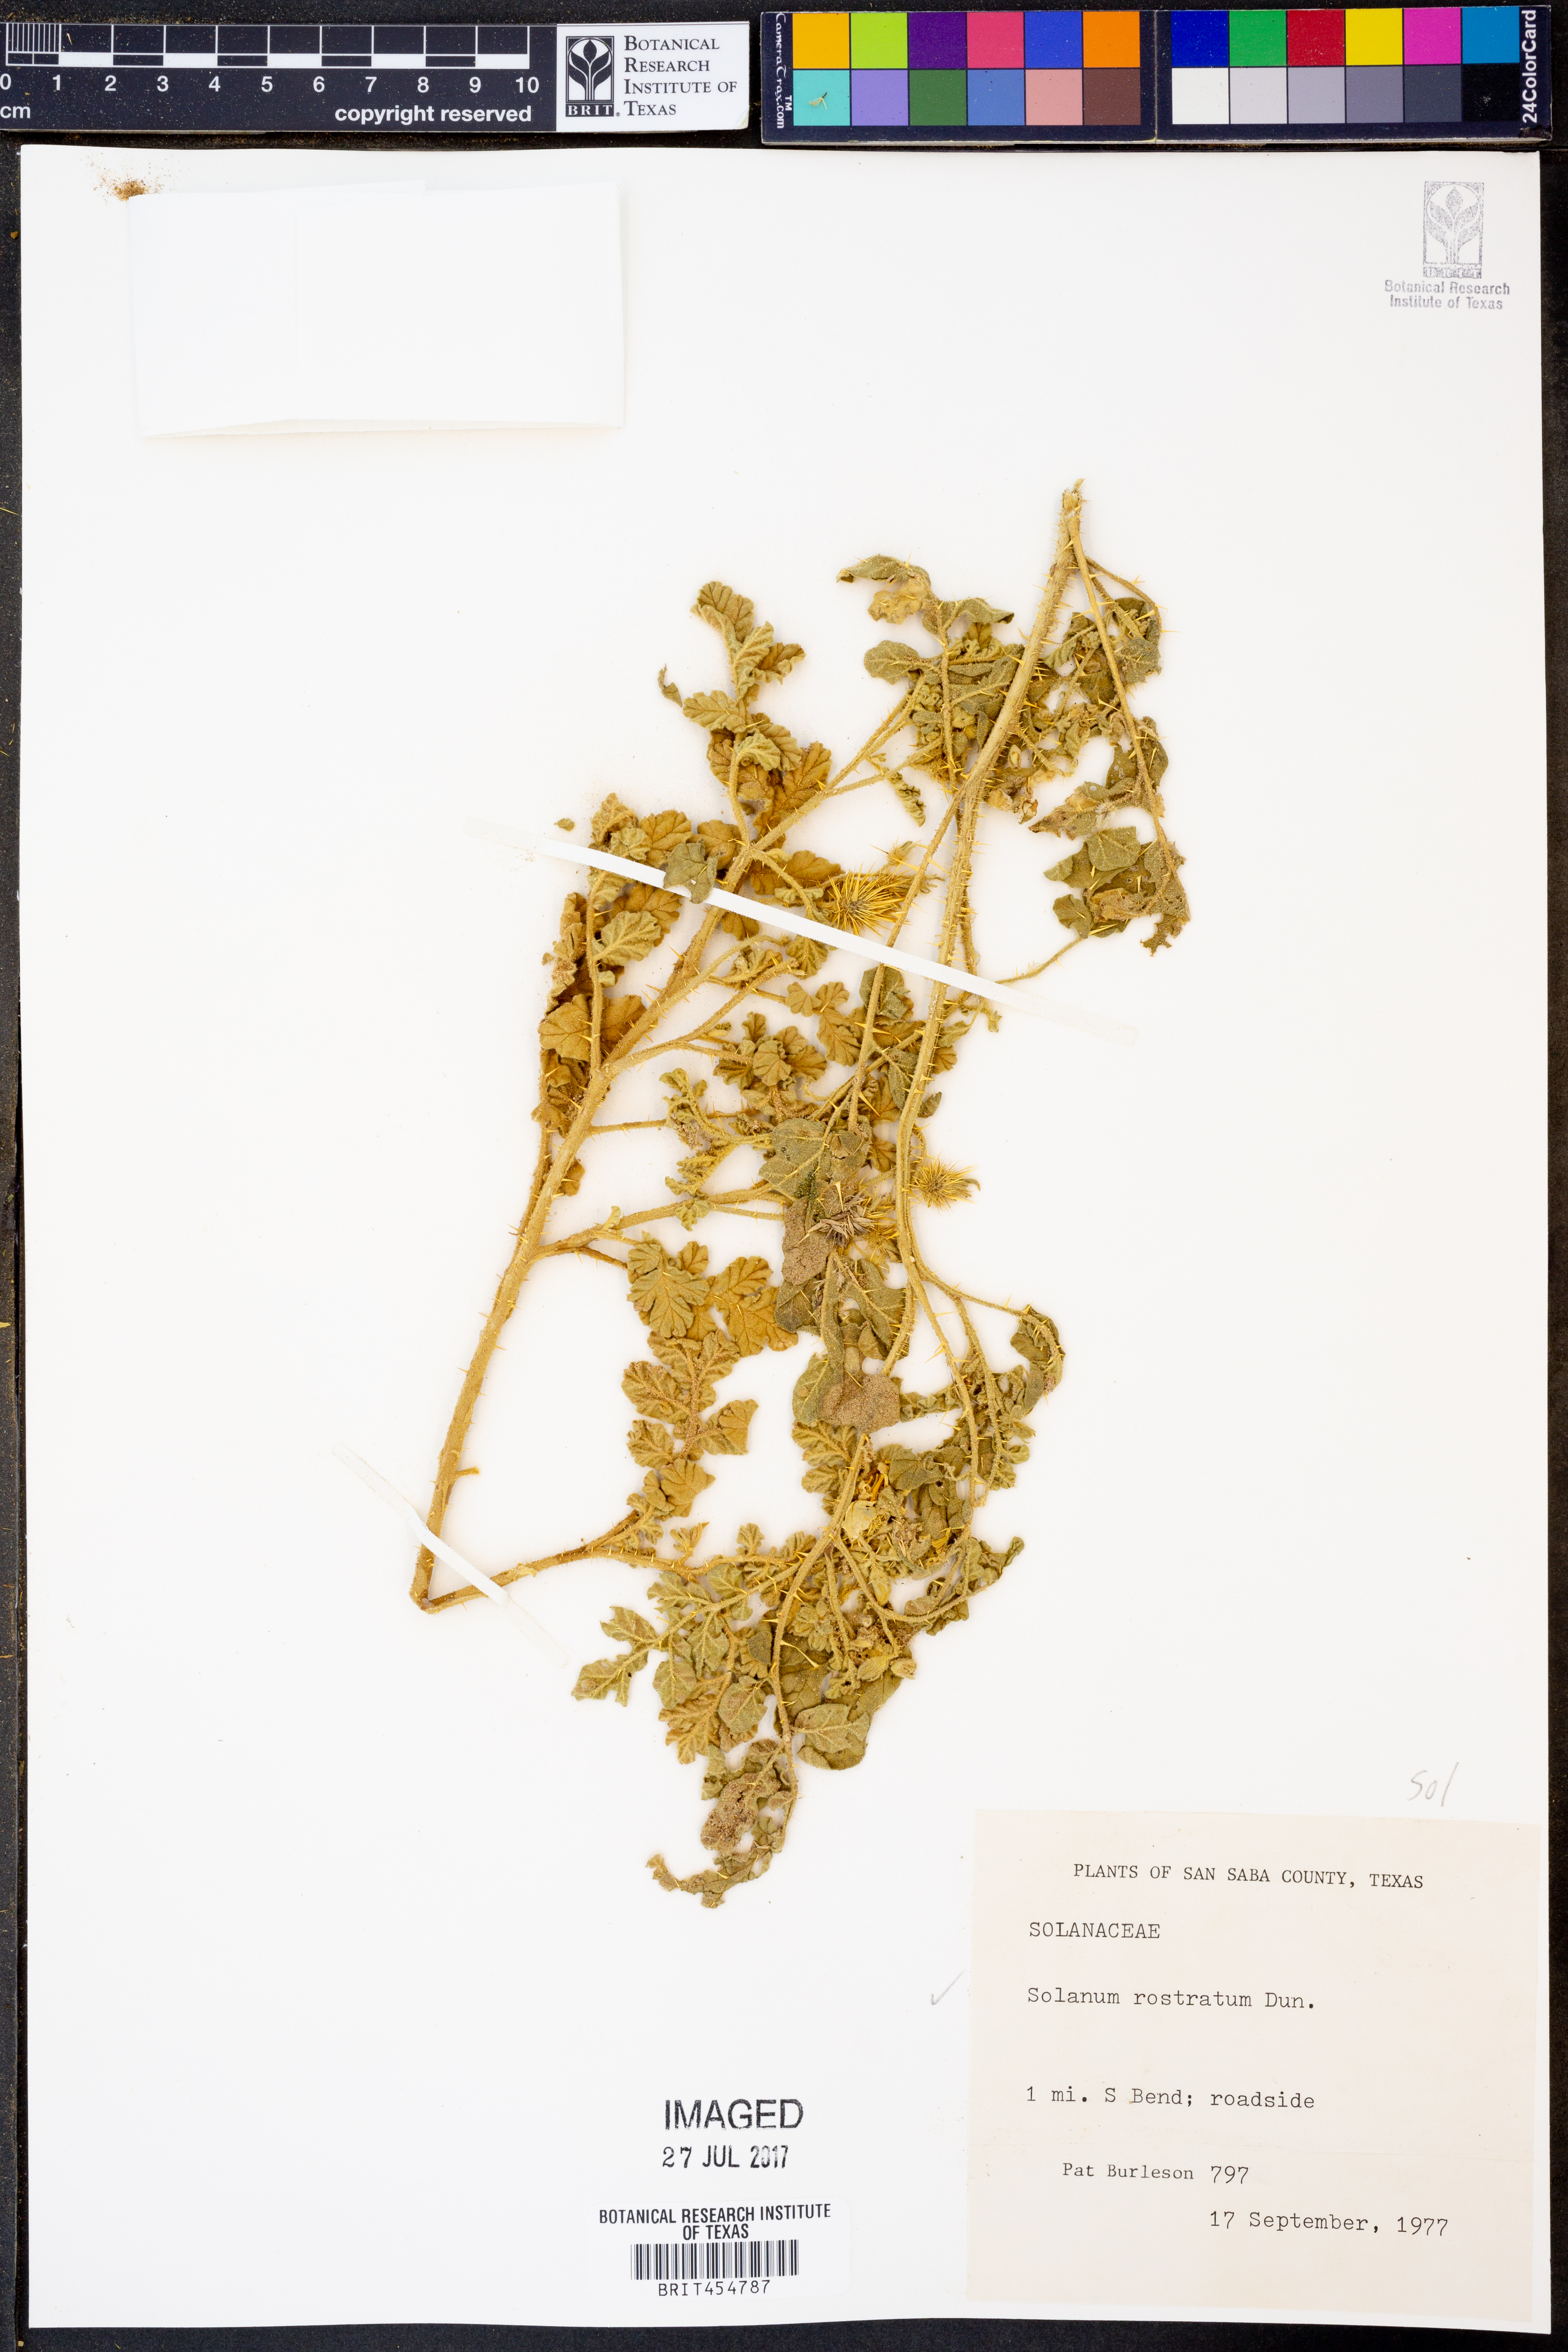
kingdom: Plantae
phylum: Tracheophyta
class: Magnoliopsida
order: Solanales
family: Solanaceae
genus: Solanum
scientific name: Solanum angustifolium
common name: Buffalobur nightshade
